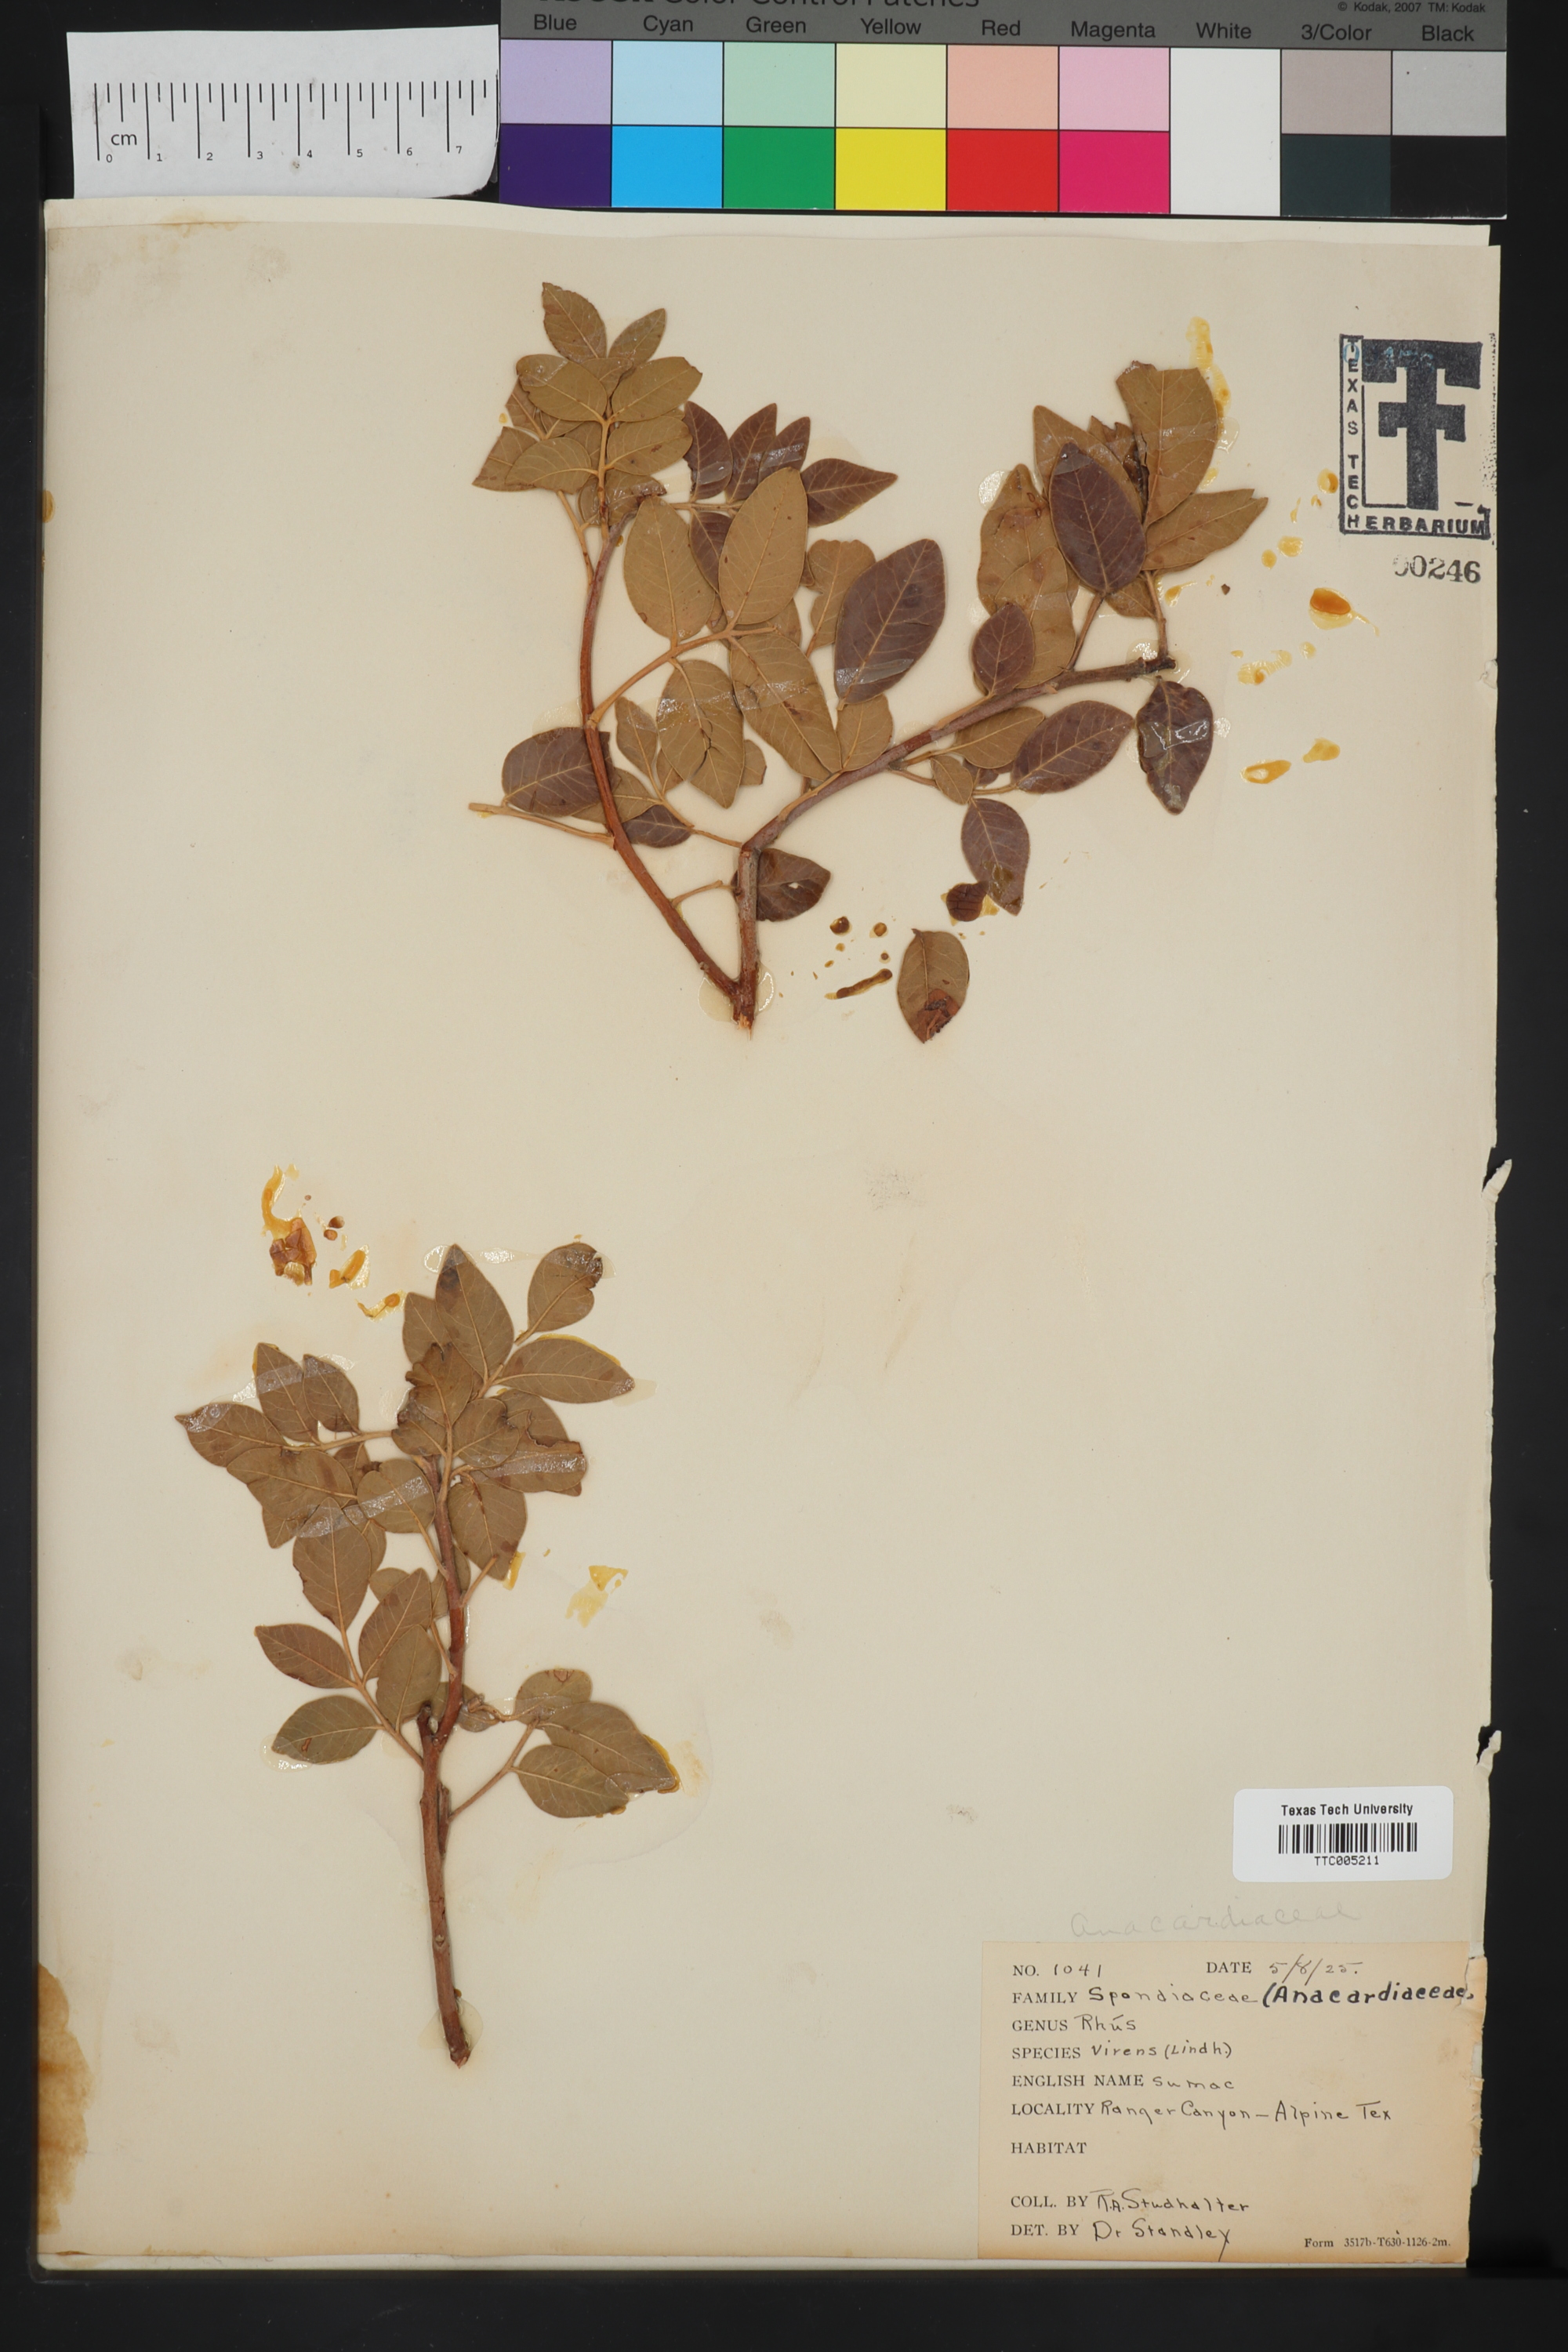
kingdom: Plantae
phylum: Tracheophyta
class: Magnoliopsida
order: Sapindales
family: Anacardiaceae
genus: Rhus
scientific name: Rhus virens
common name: Evergreen sumac
